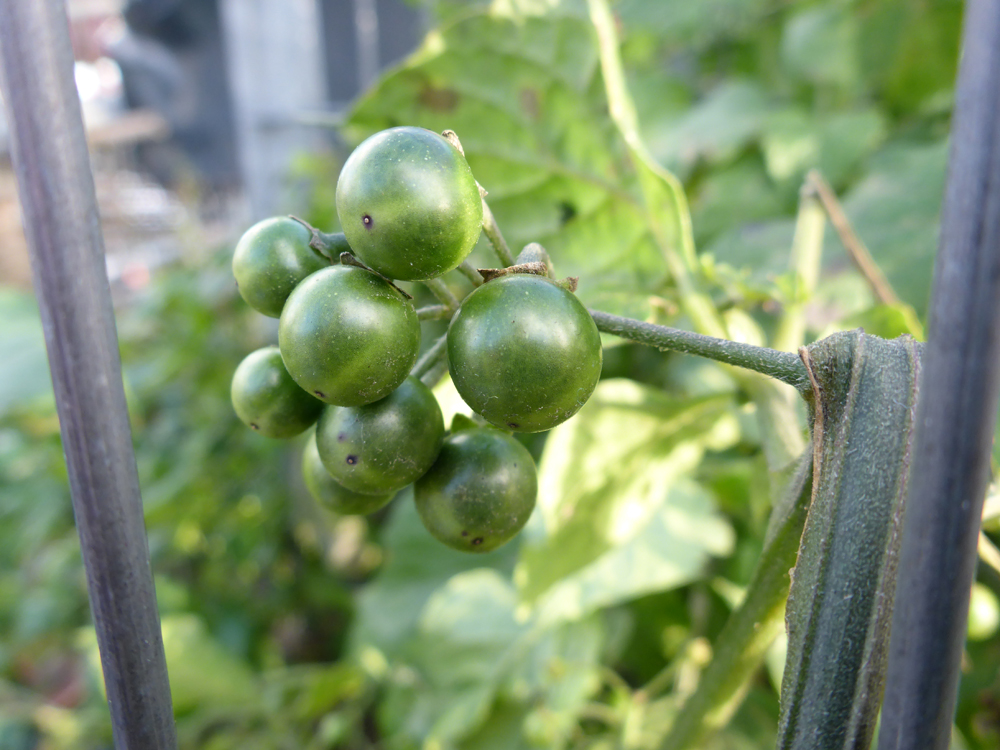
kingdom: Plantae
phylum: Tracheophyta
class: Magnoliopsida
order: Solanales
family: Solanaceae
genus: Solanum
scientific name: Solanum nigrum
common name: Black nightshade
